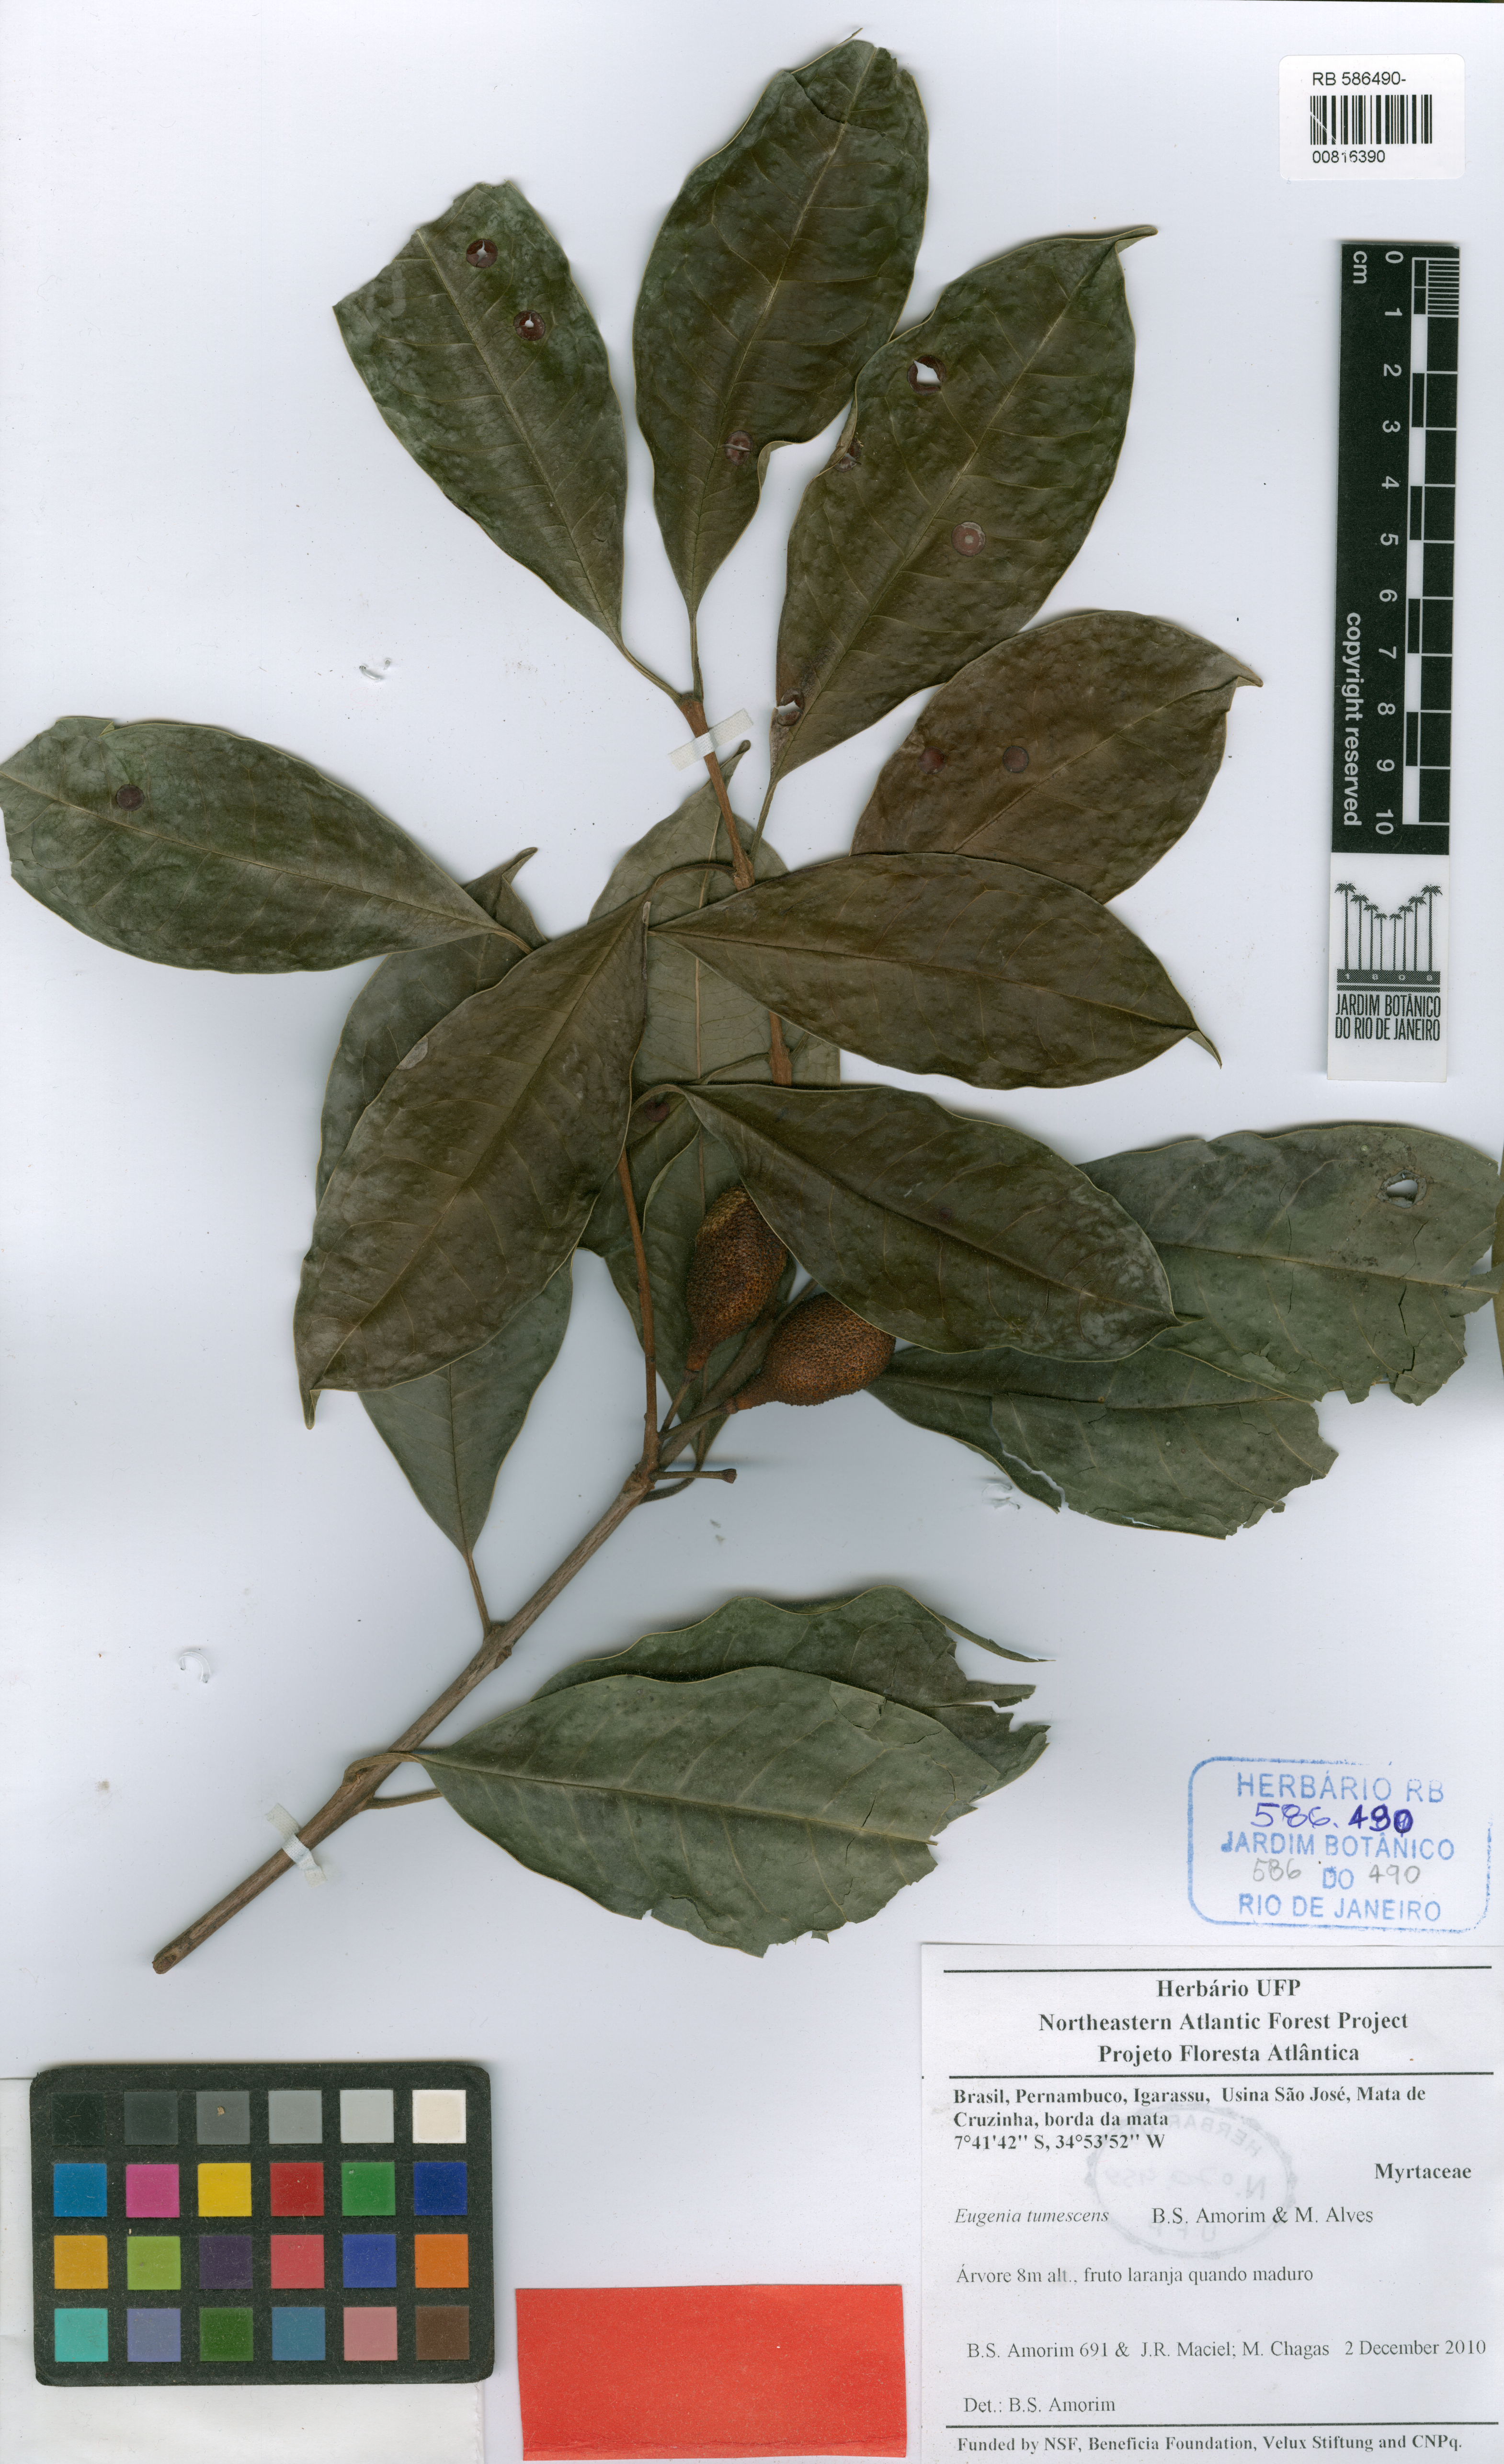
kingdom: Plantae
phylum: Tracheophyta
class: Magnoliopsida
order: Myrtales
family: Myrtaceae
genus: Eugenia
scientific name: Eugenia tumescens
